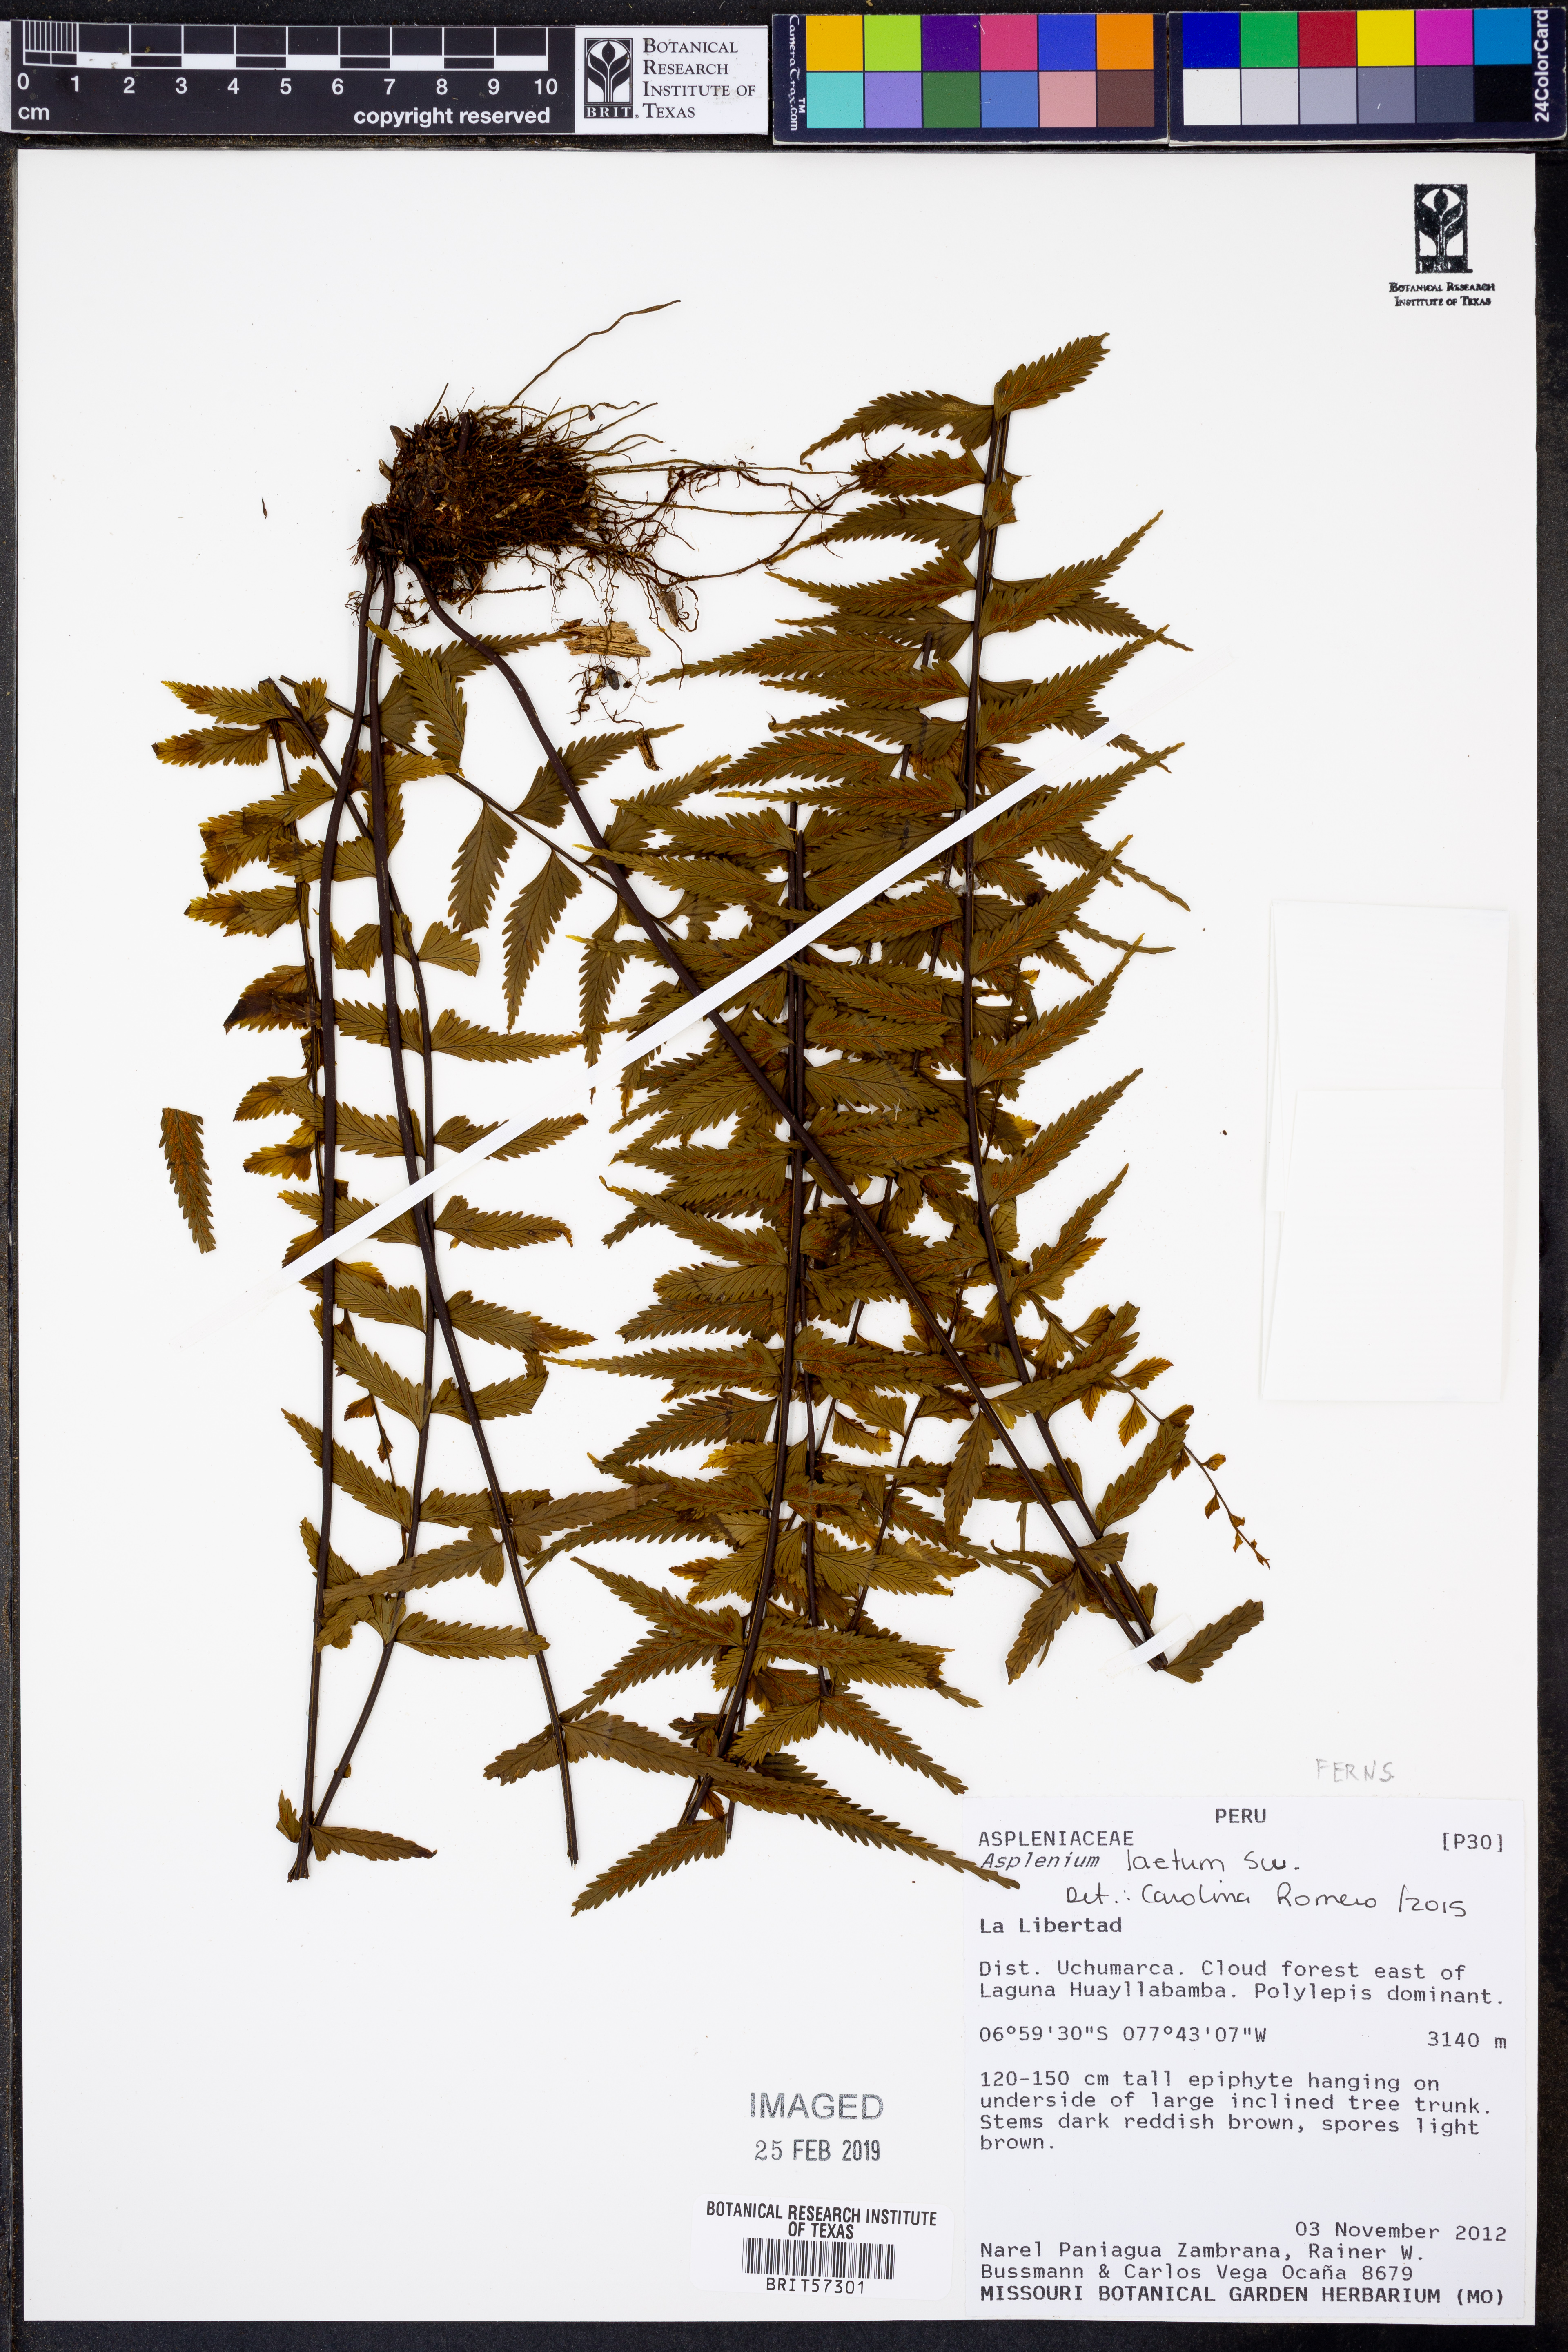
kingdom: Plantae
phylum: Tracheophyta
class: Polypodiopsida
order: Polypodiales
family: Aspleniaceae
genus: Hymenasplenium
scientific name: Hymenasplenium laetum
